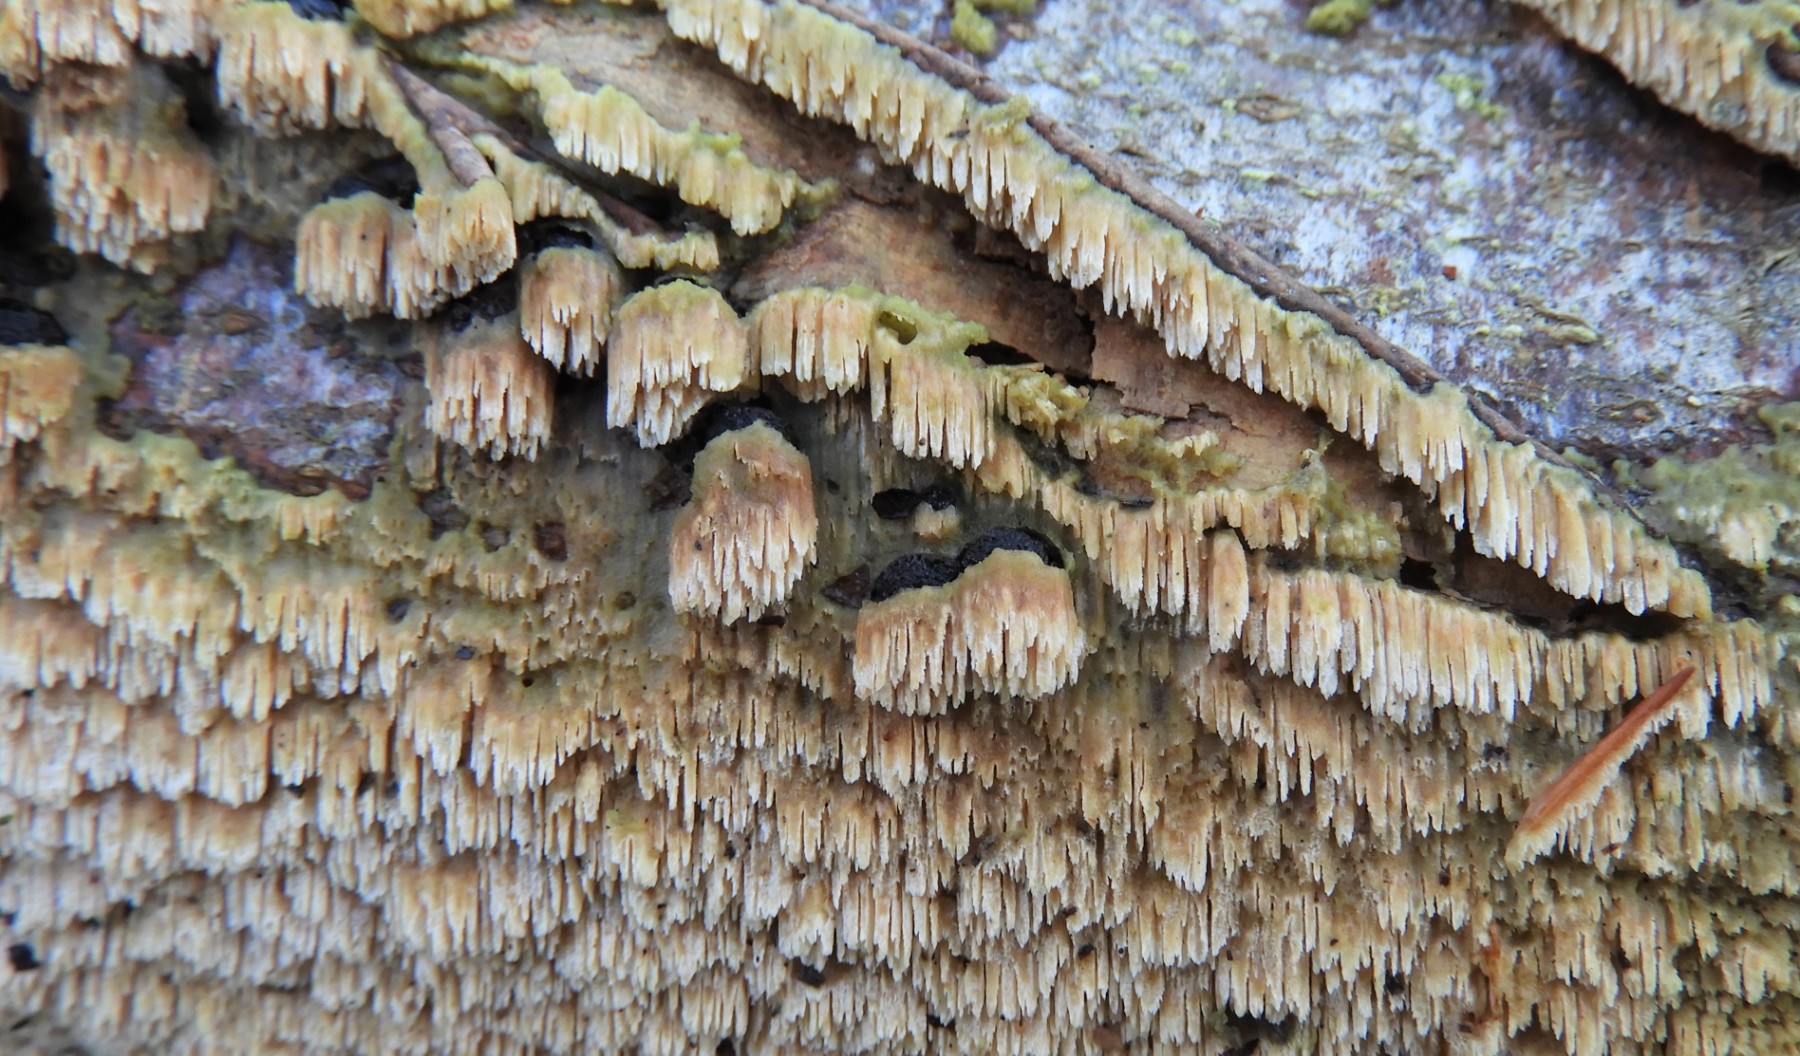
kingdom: Fungi
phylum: Basidiomycota
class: Agaricomycetes
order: Hymenochaetales
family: Schizoporaceae
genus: Schizopora
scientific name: Schizopora paradoxa
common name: hvid tandsvamp
